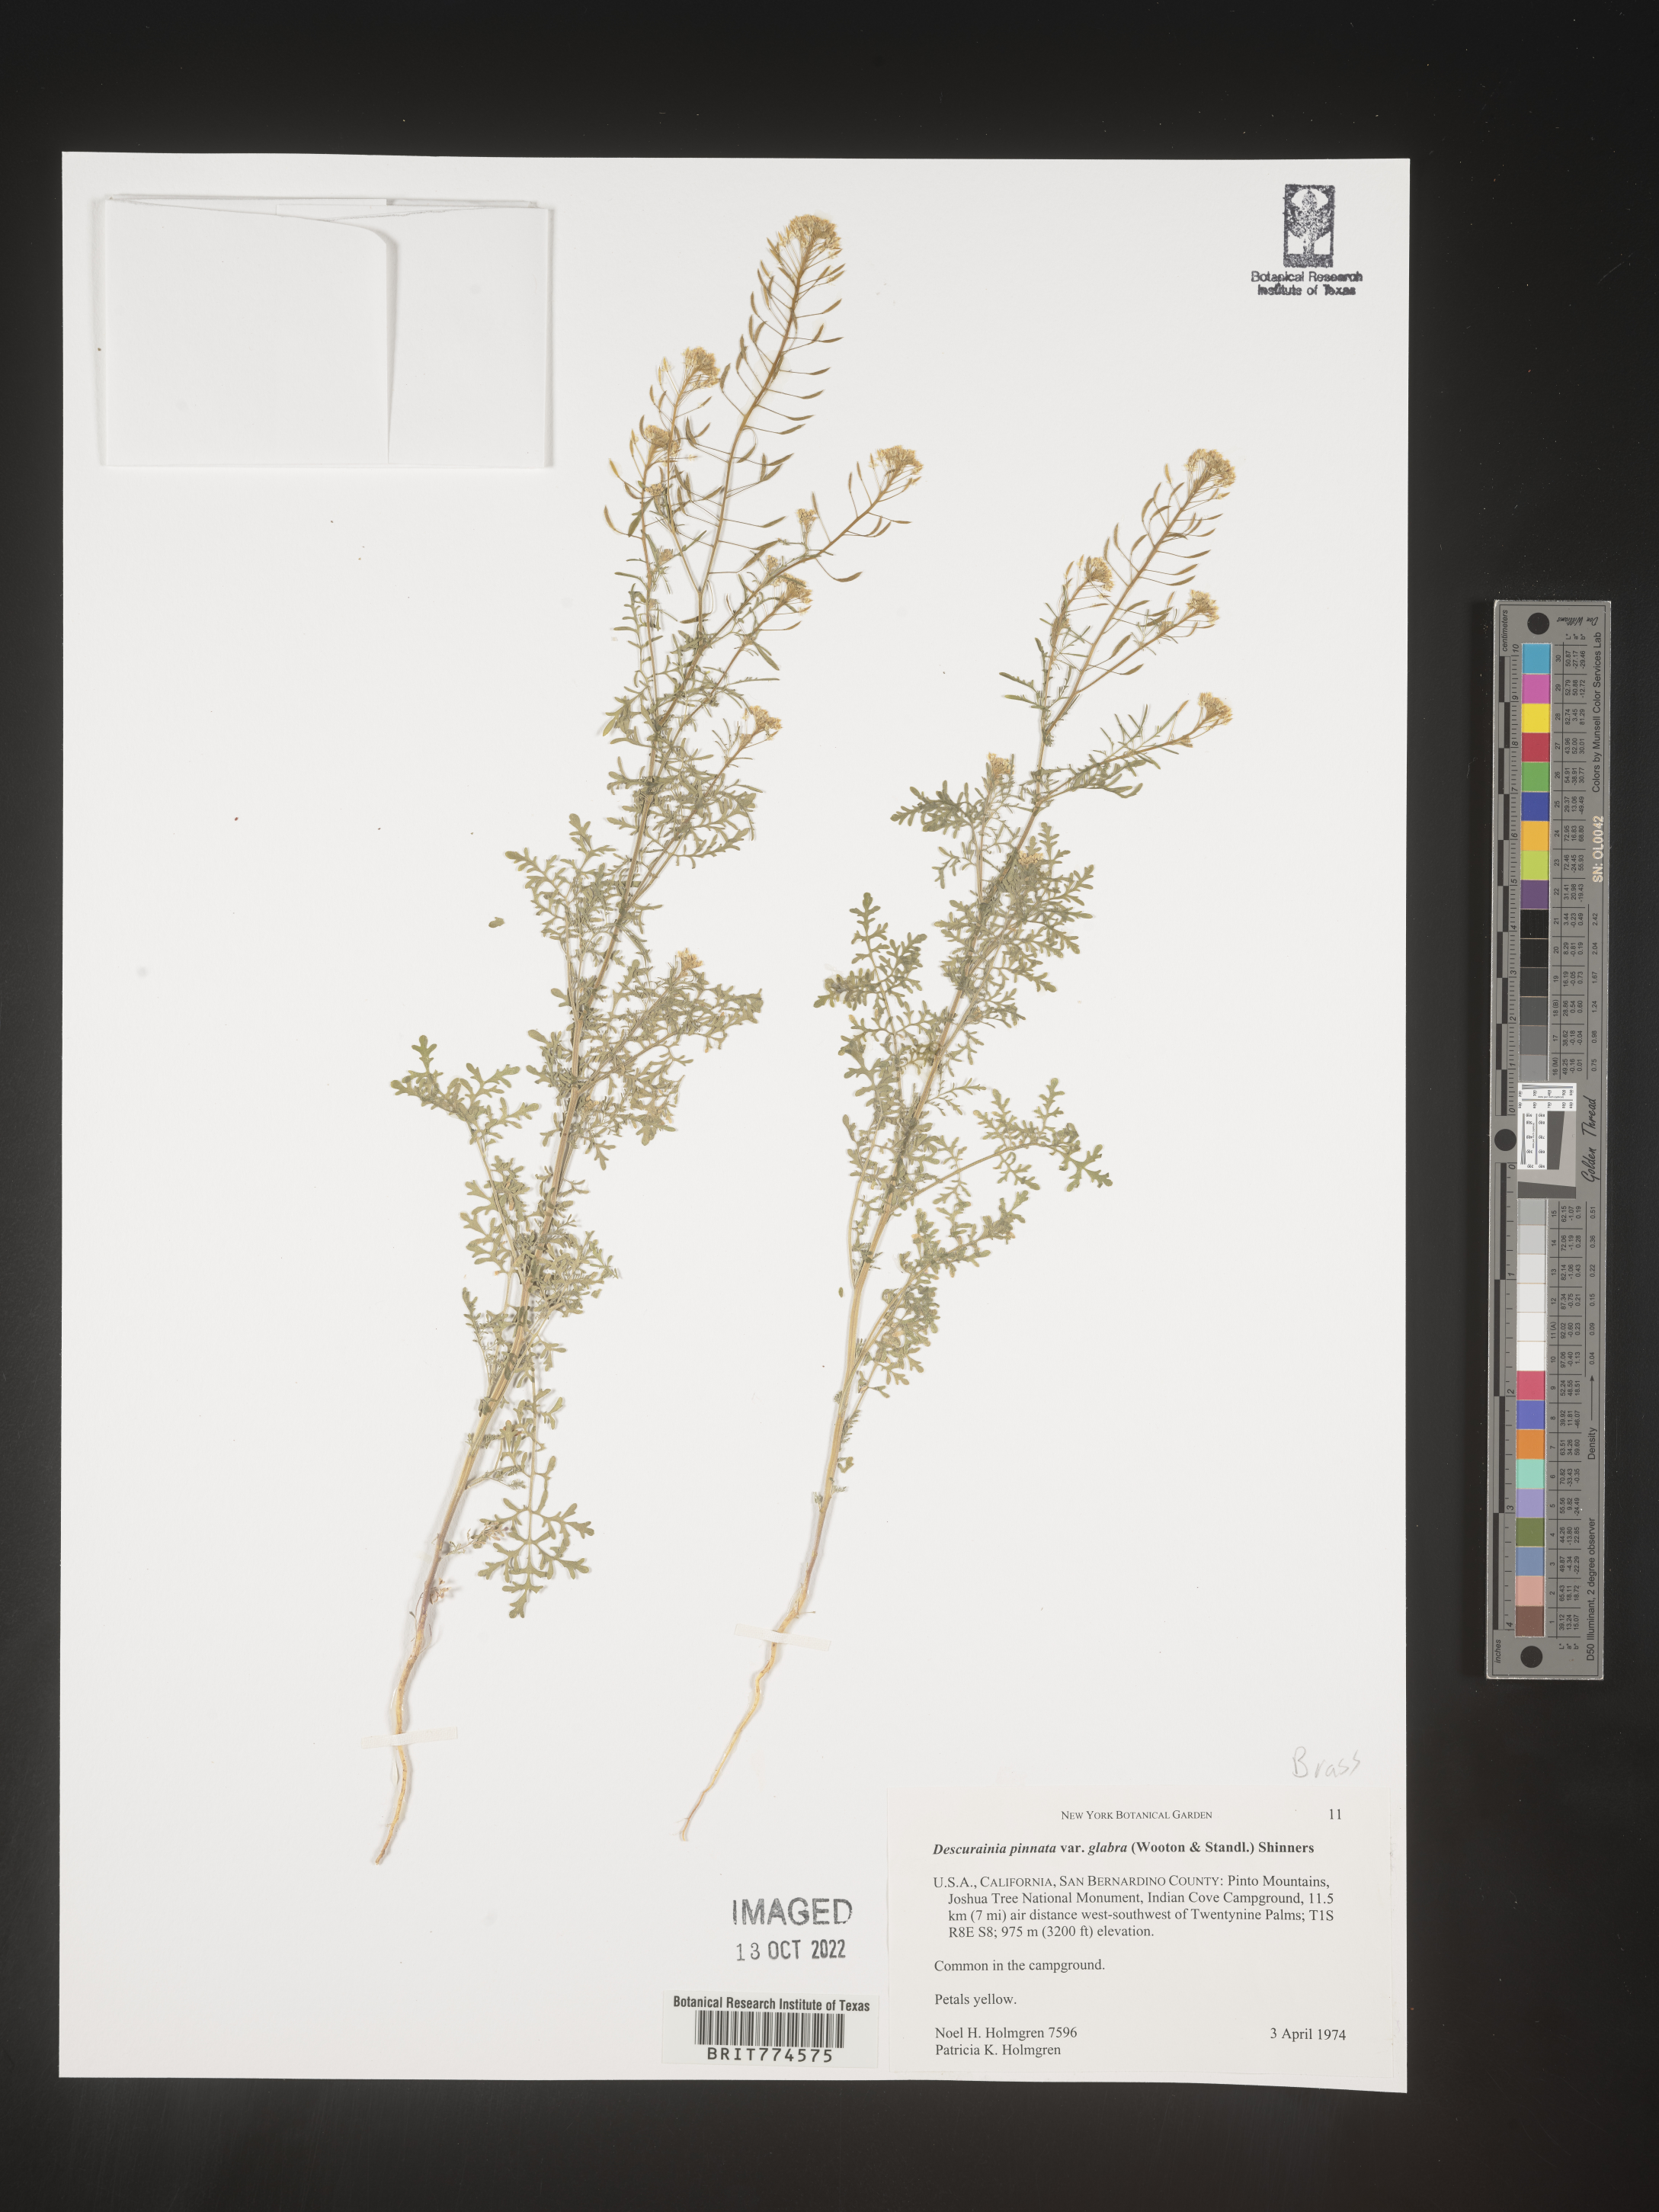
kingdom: Plantae
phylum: Tracheophyta
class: Magnoliopsida
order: Brassicales
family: Brassicaceae
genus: Descurainia
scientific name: Descurainia pinnata
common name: Western tansy mustard
